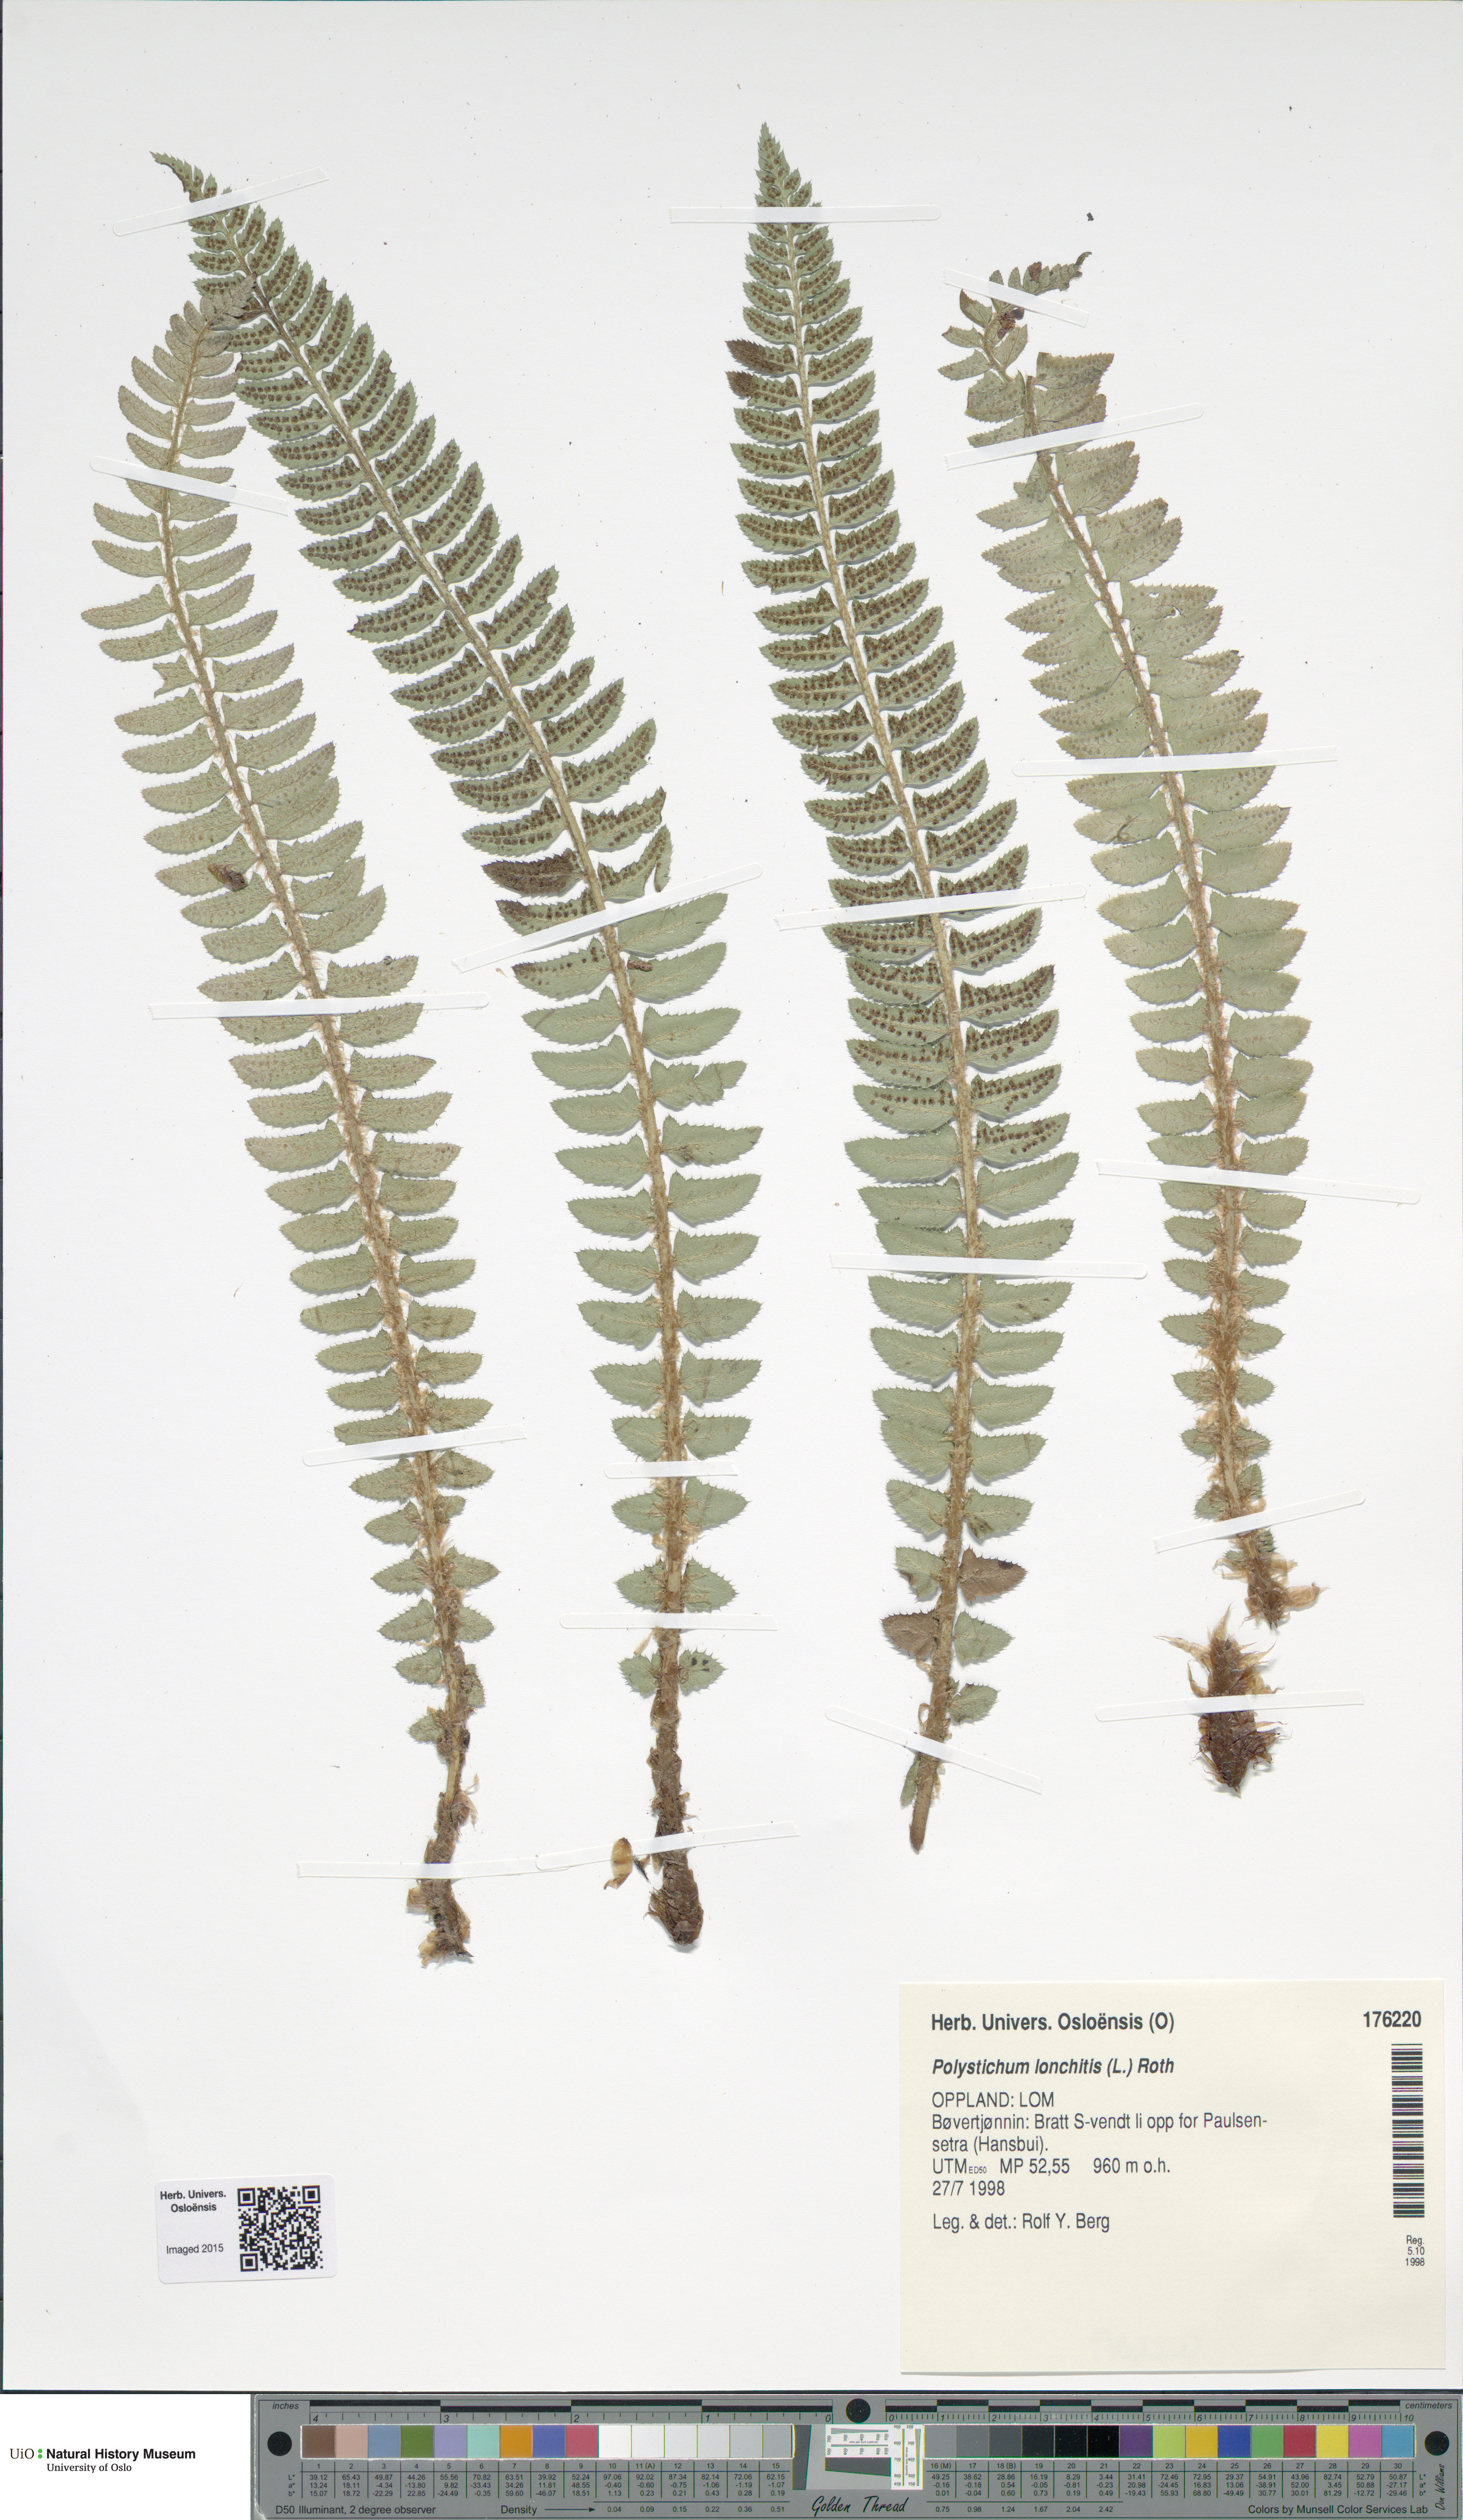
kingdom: Plantae
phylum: Tracheophyta
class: Polypodiopsida
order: Polypodiales
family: Dryopteridaceae
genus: Polystichum
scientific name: Polystichum lonchitis
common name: Holly fern
